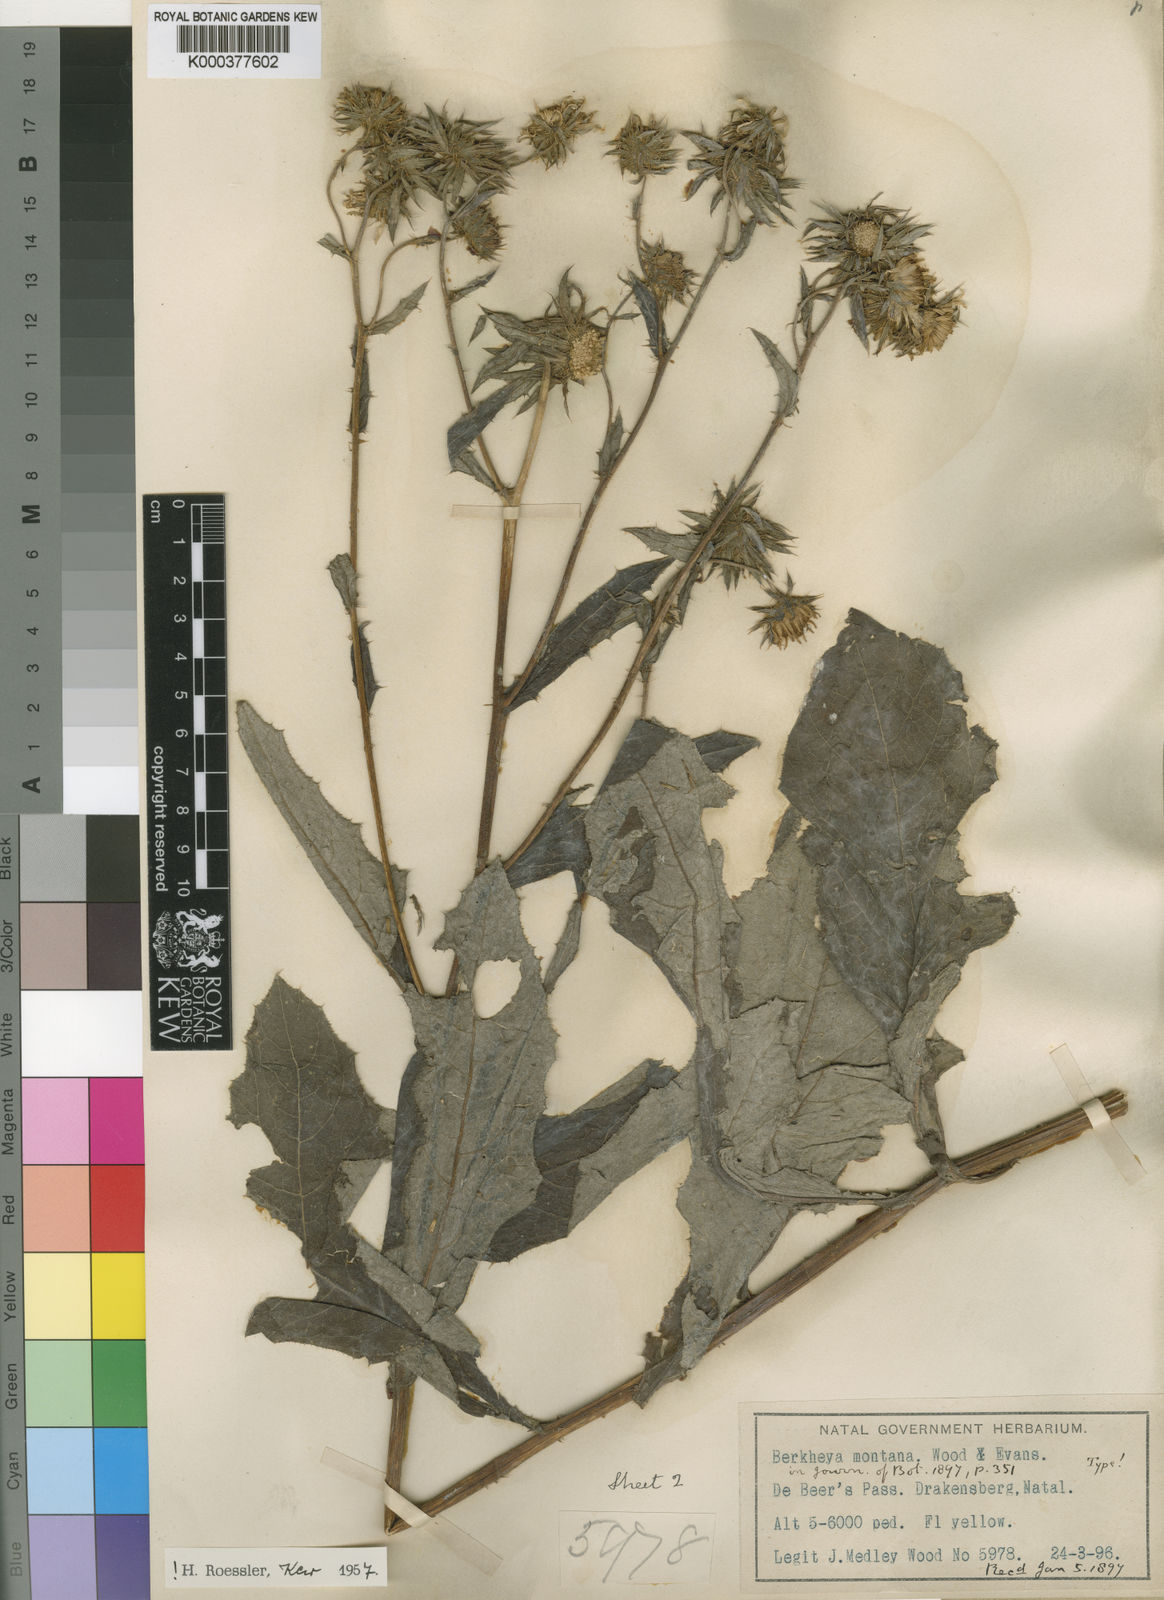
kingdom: Plantae
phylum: Tracheophyta
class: Magnoliopsida
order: Asterales
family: Asteraceae
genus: Berkheya
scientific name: Berkheya montana
